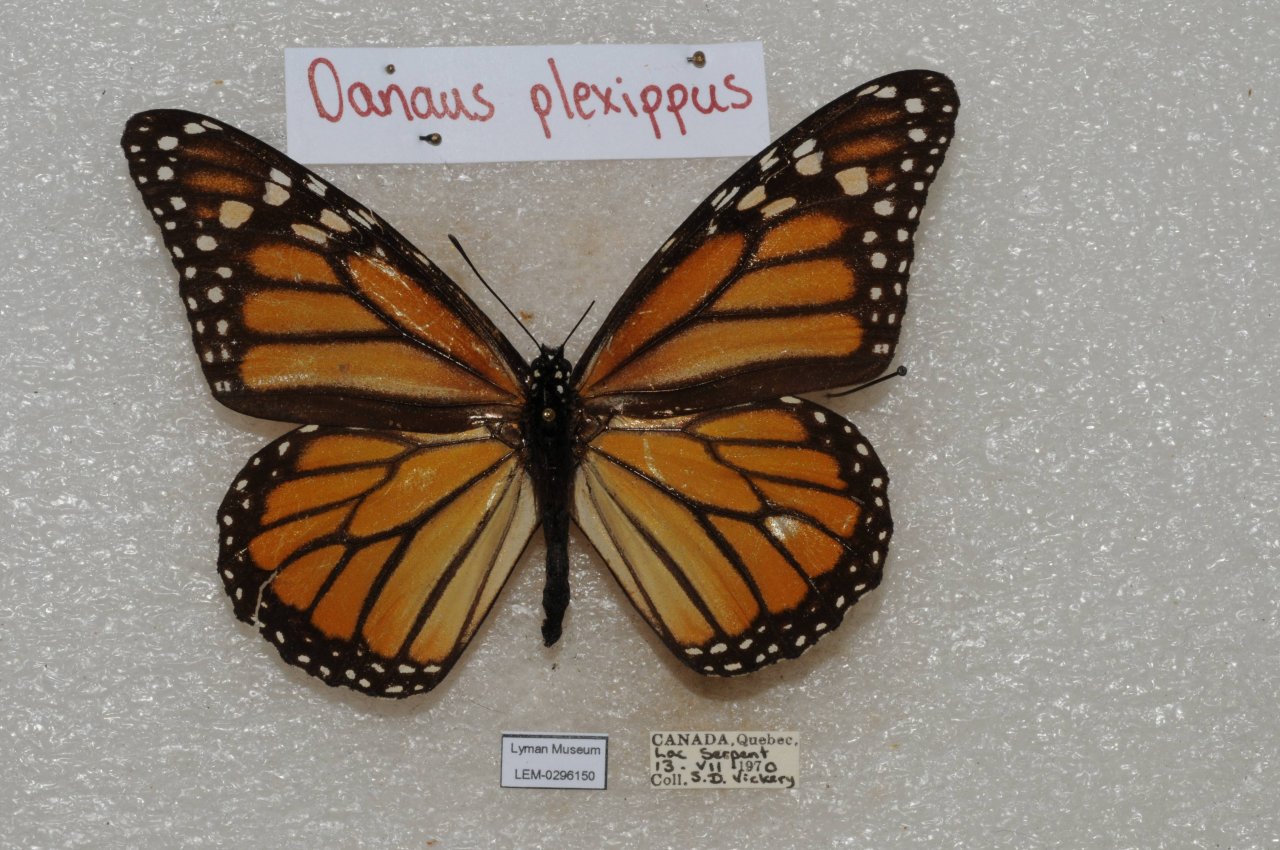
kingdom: Animalia
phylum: Arthropoda
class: Insecta
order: Lepidoptera
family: Nymphalidae
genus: Danaus
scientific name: Danaus plexippus
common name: Monarch
